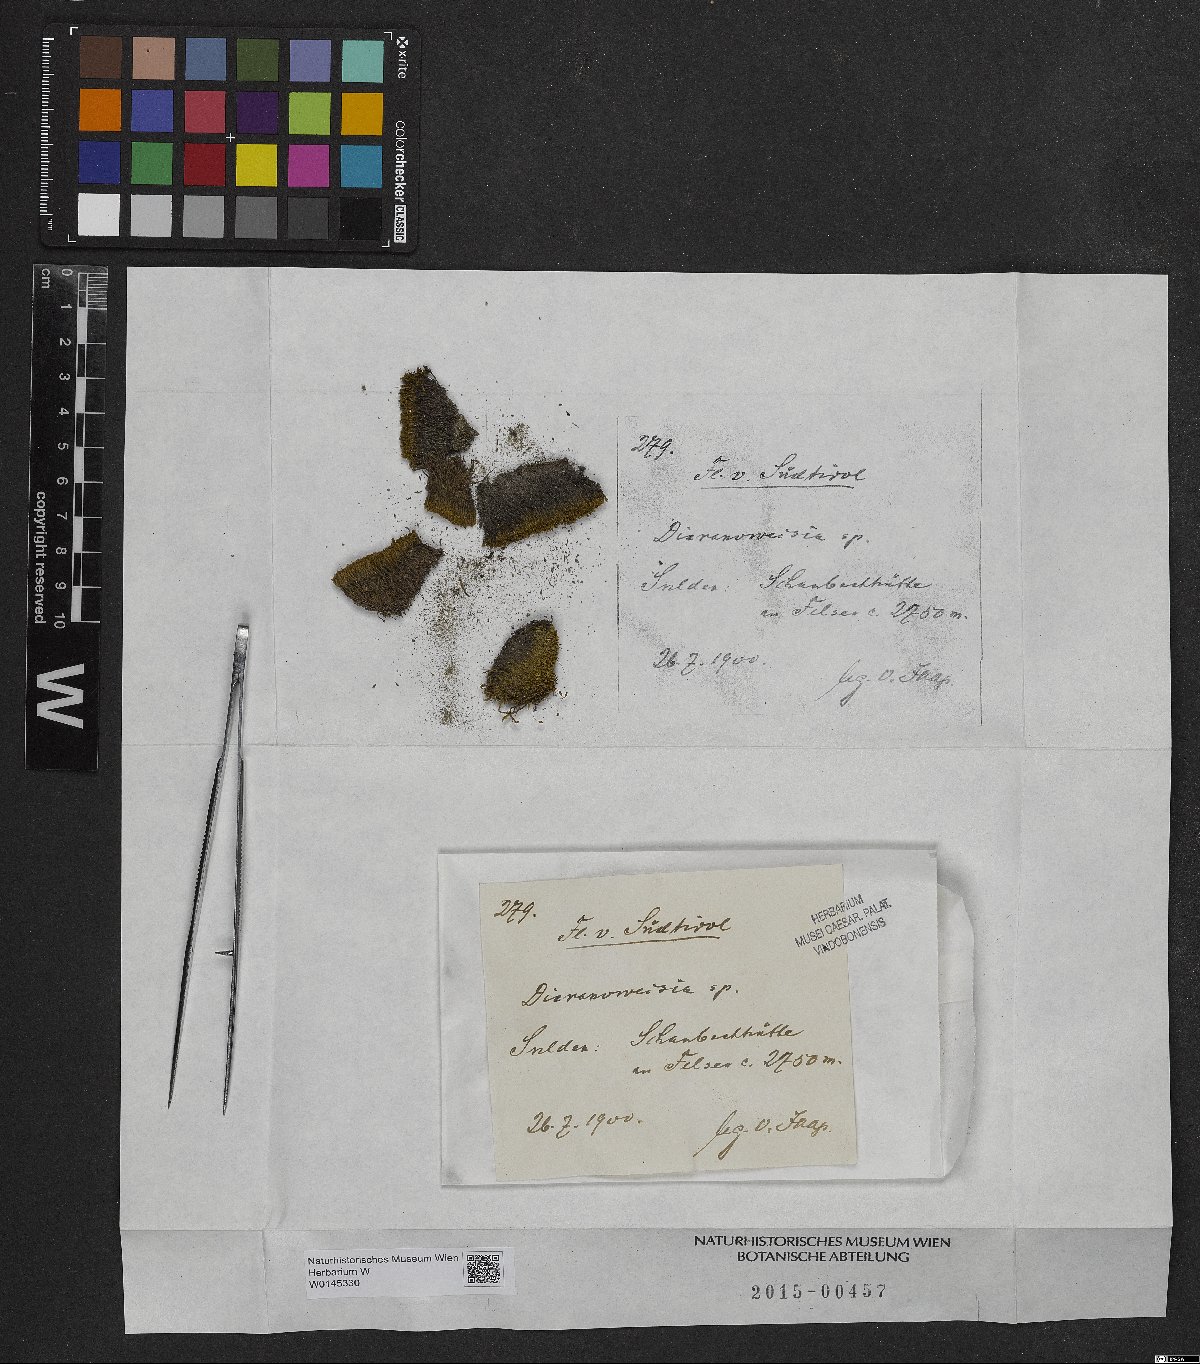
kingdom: Plantae
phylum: Bryophyta
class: Bryopsida
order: Dicranales
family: Rhabdoweisiaceae
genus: Dicranoweisia
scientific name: Dicranoweisia
